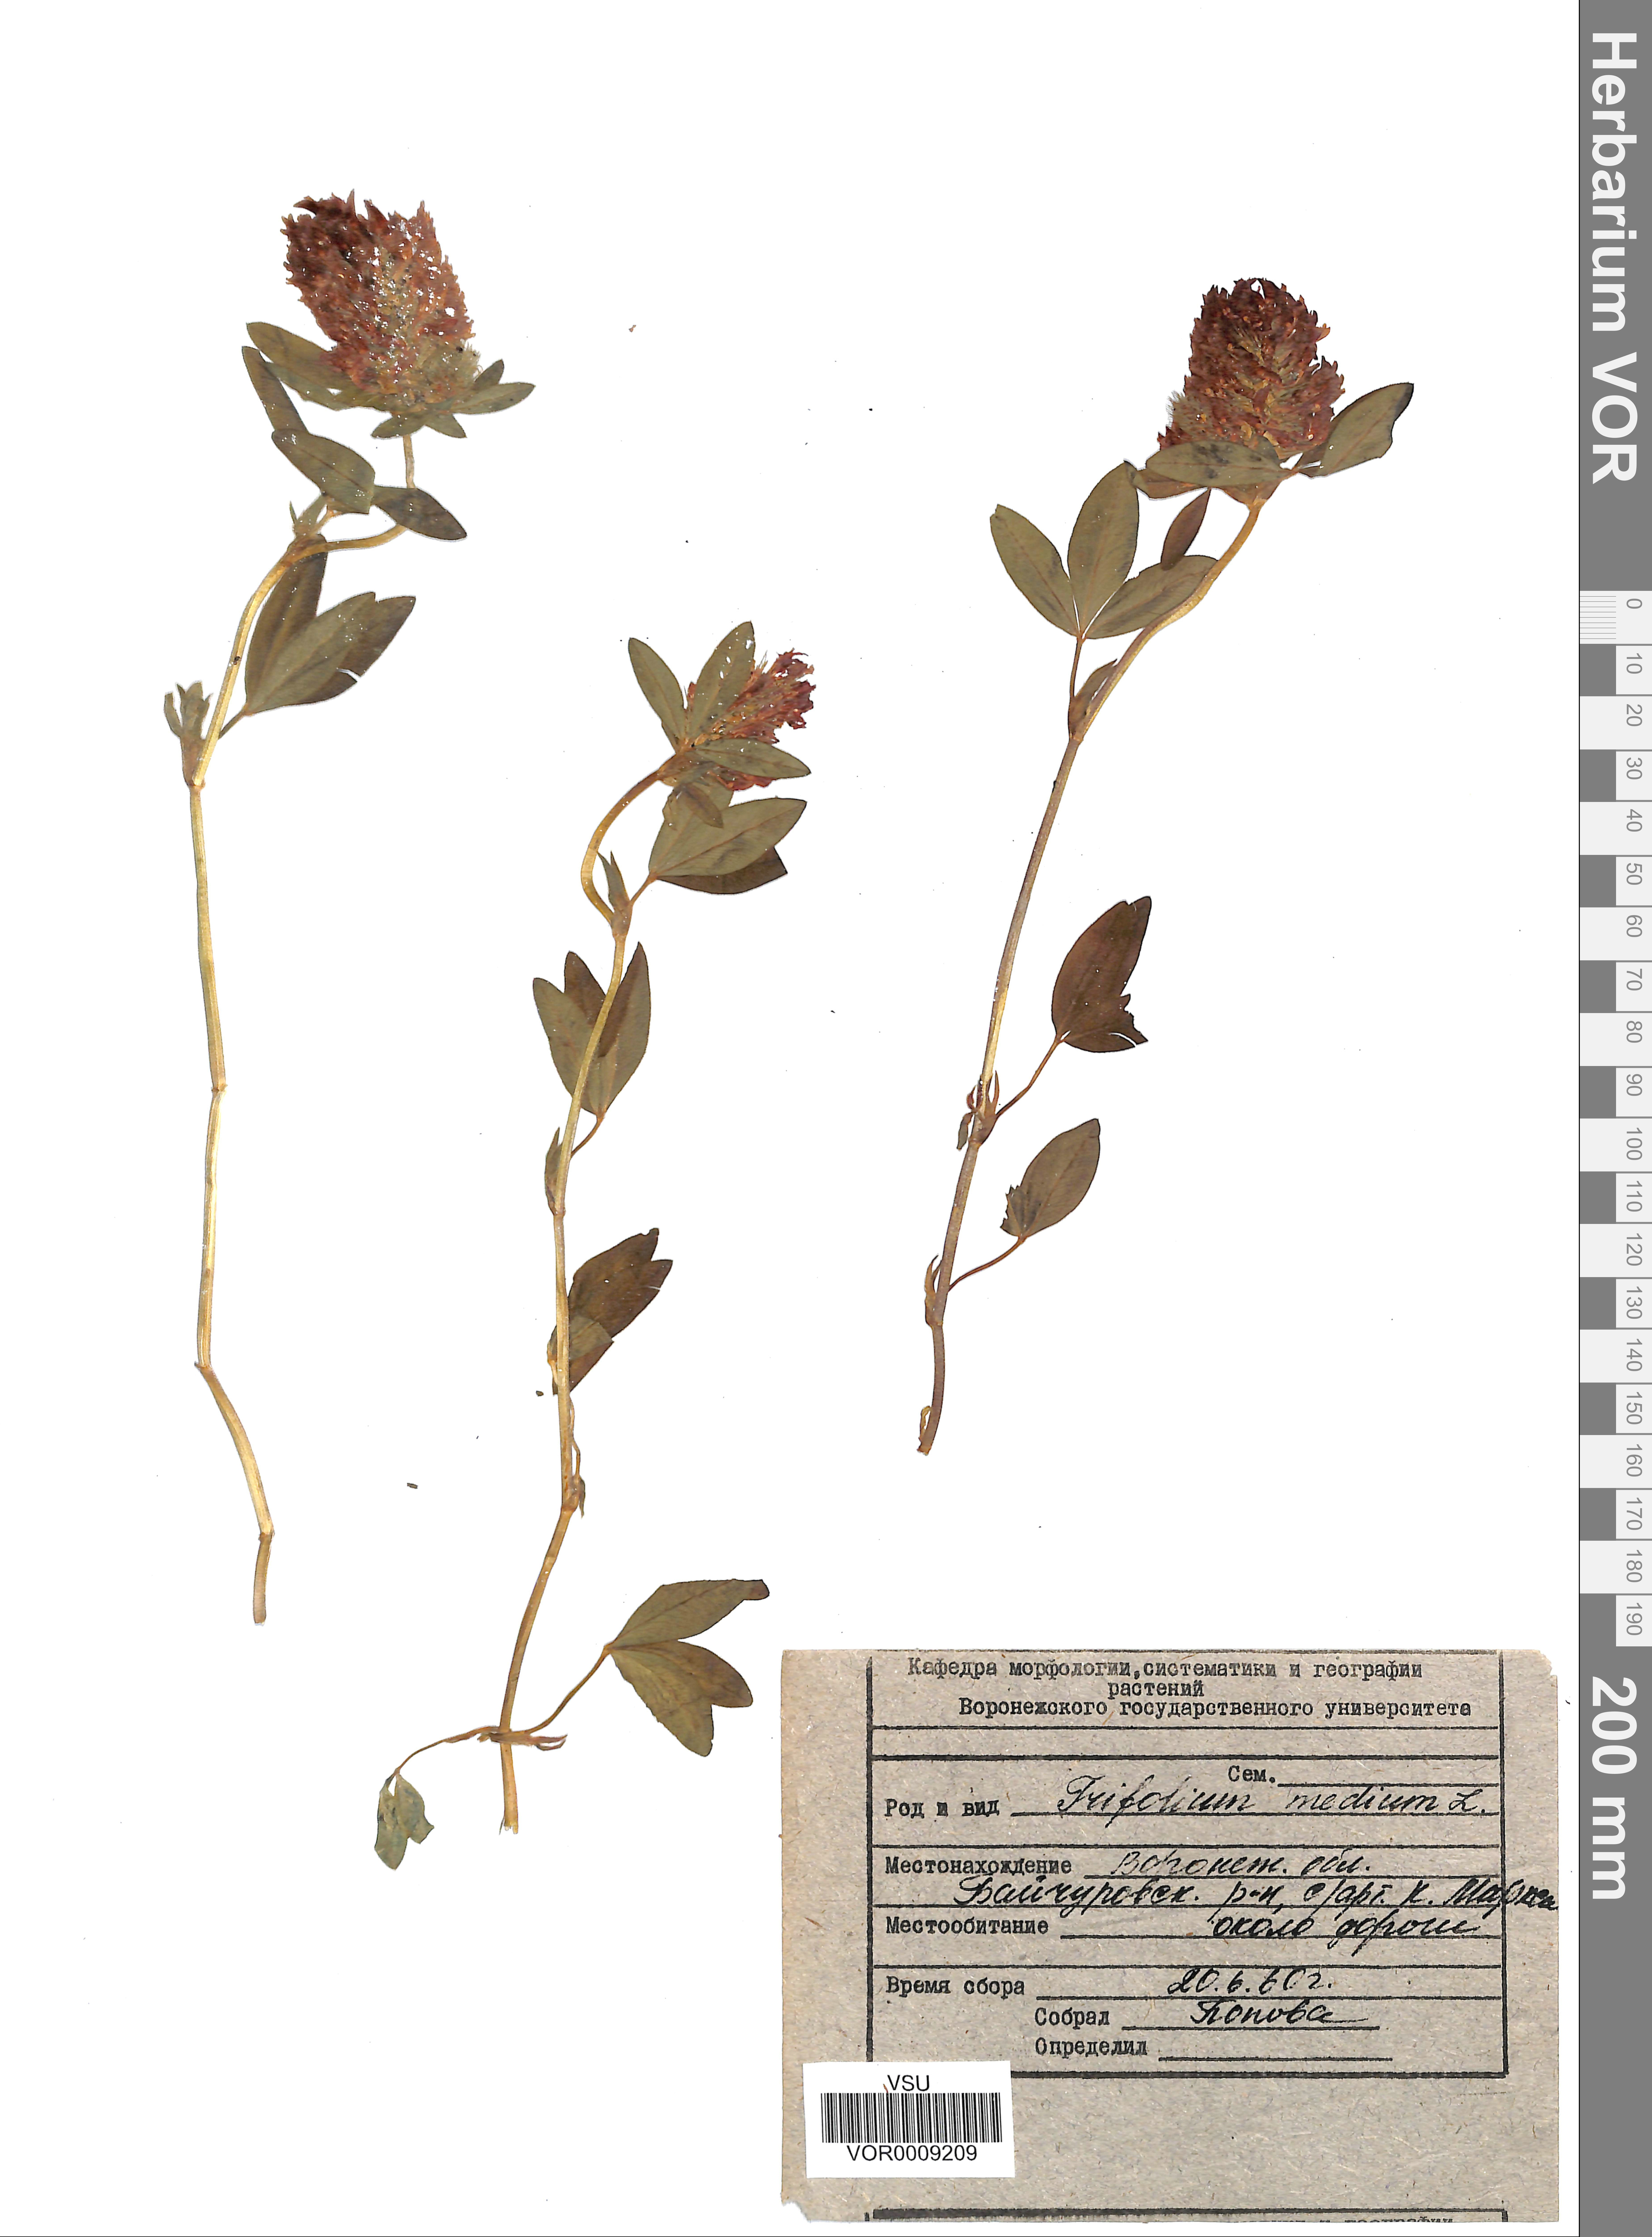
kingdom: Plantae
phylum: Tracheophyta
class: Magnoliopsida
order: Fabales
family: Fabaceae
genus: Trifolium
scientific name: Trifolium medium
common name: Zigzag clover
